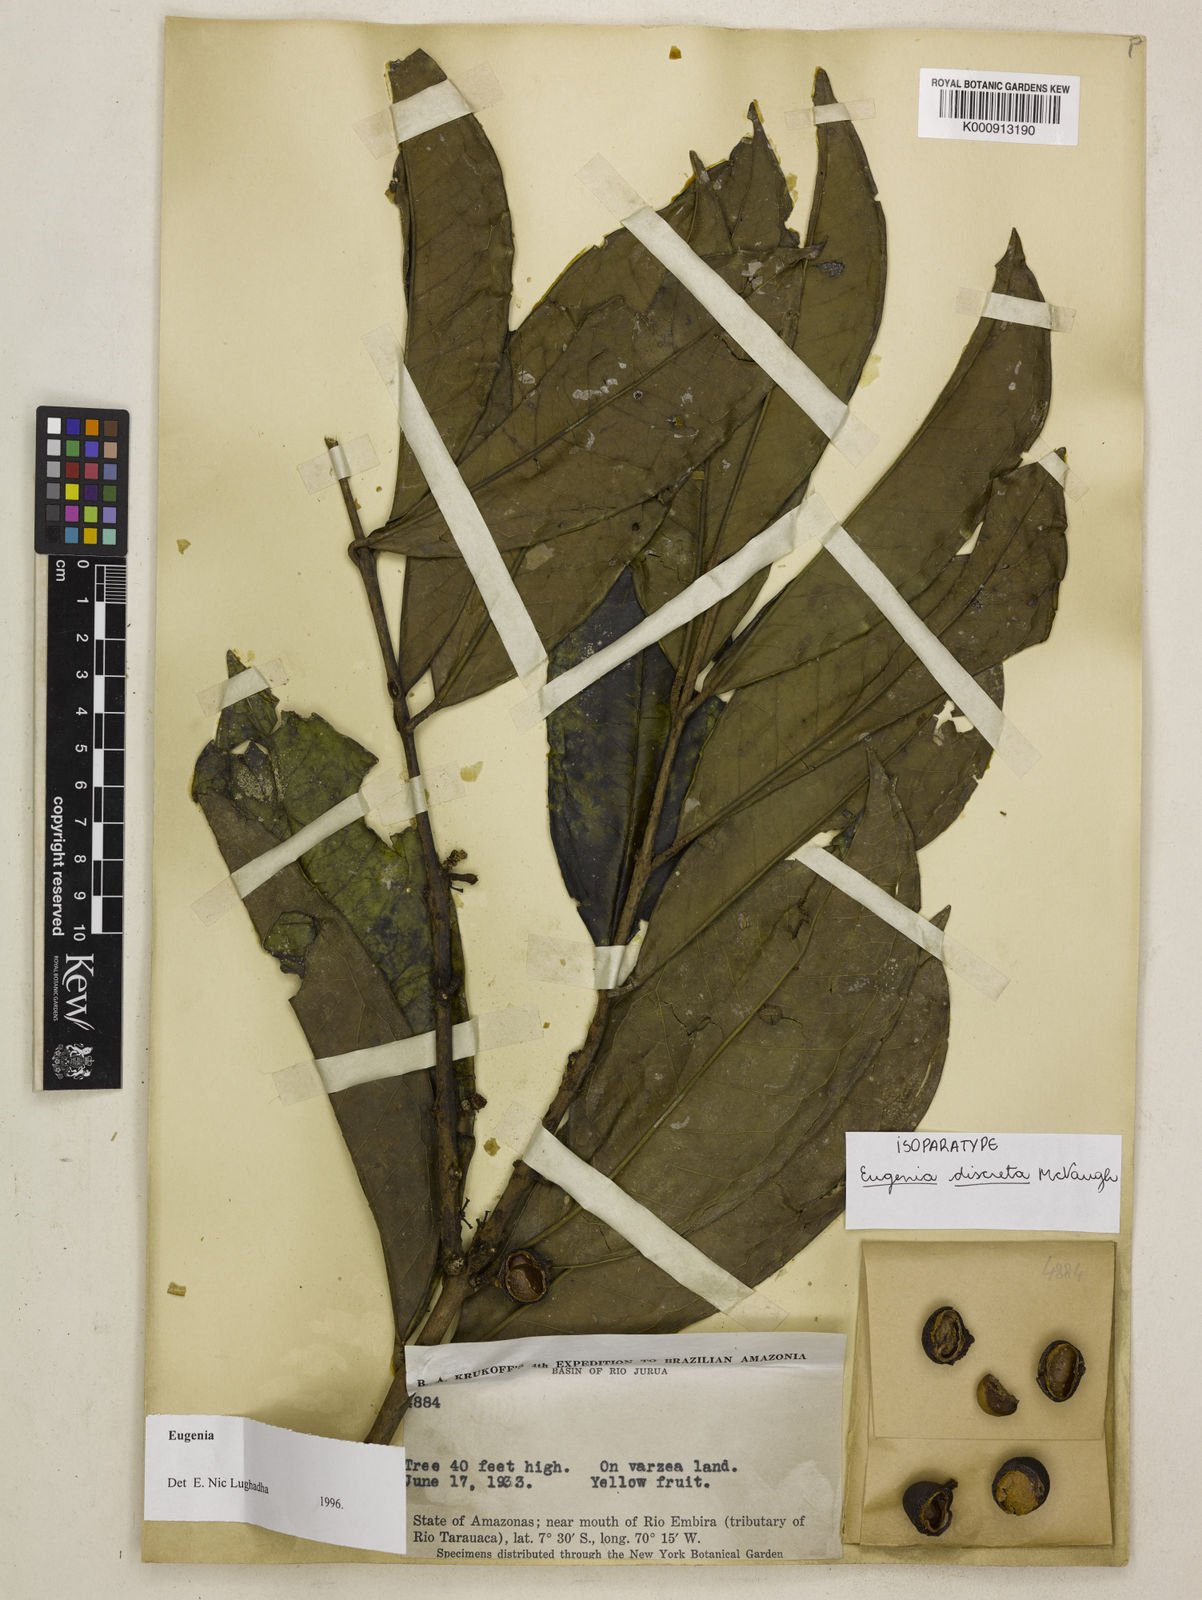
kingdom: Plantae
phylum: Tracheophyta
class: Magnoliopsida
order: Myrtales
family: Myrtaceae
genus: Eugenia
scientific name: Eugenia discreta
